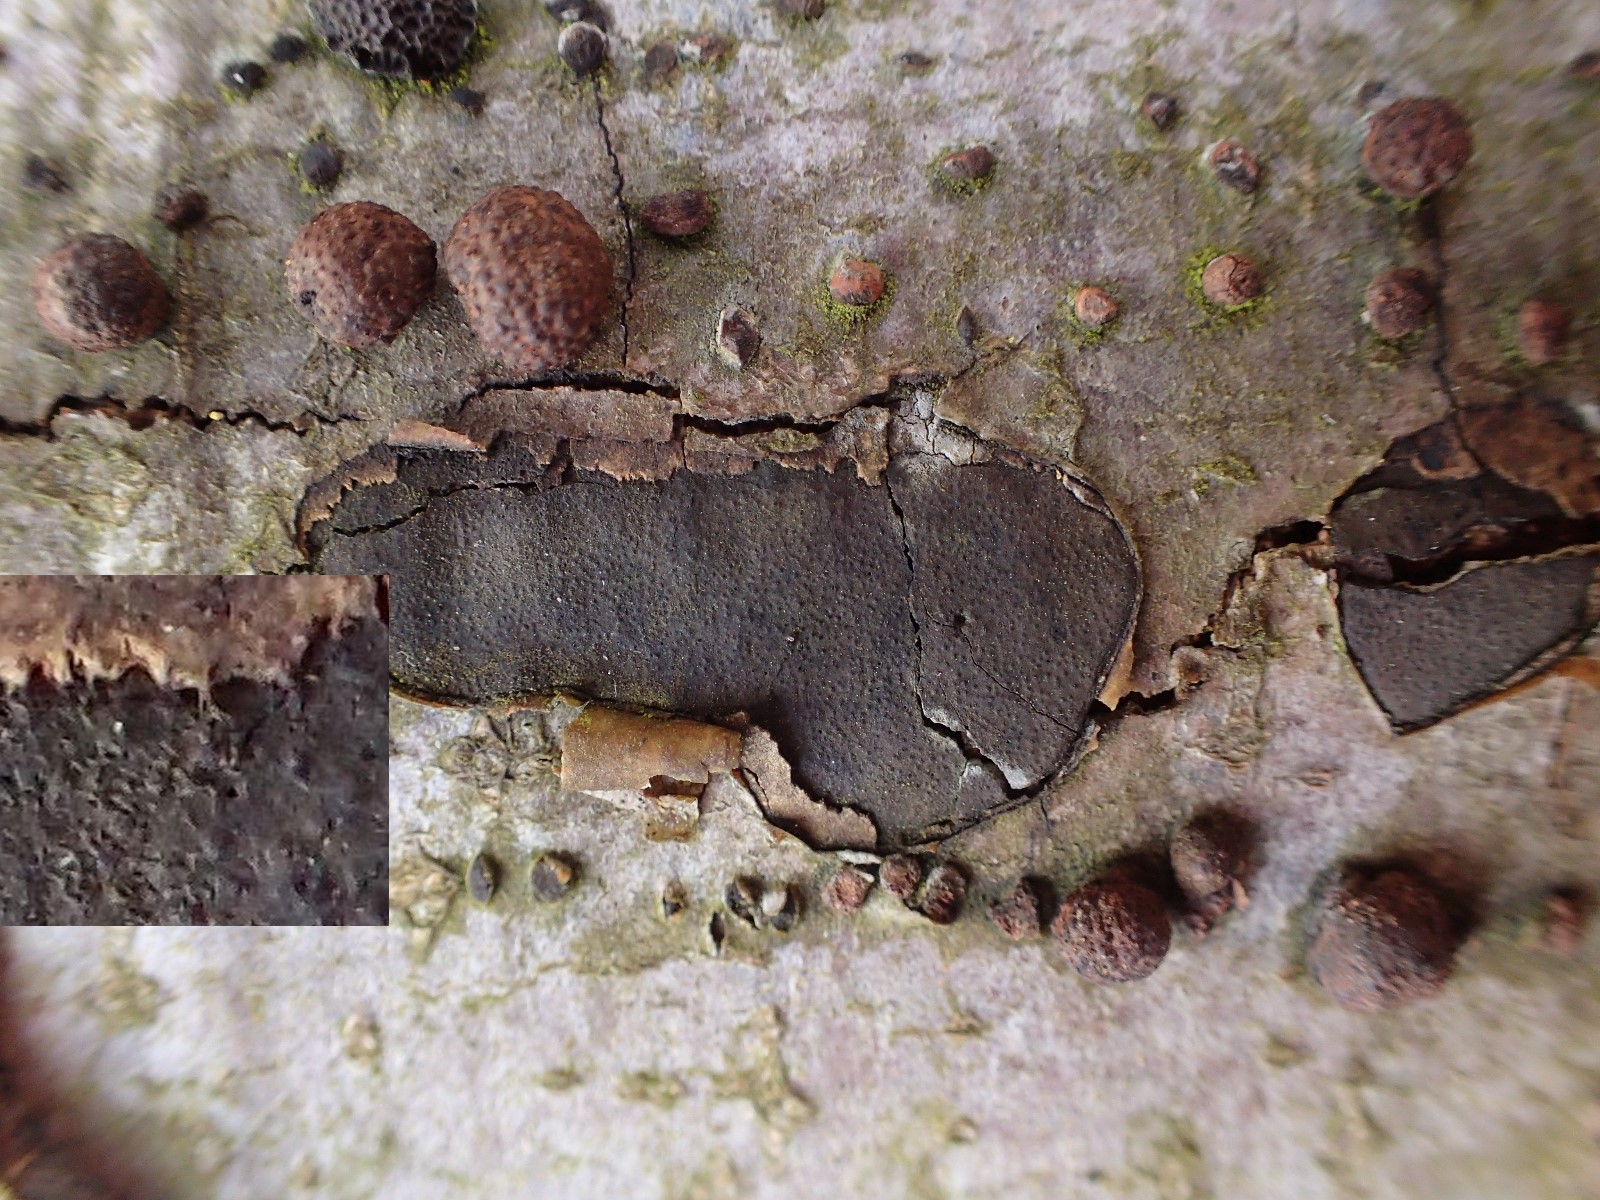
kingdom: Fungi
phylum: Ascomycota
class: Sordariomycetes
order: Xylariales
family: Graphostromataceae
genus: Biscogniauxia
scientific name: Biscogniauxia nummularia
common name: bøge-kulskive
